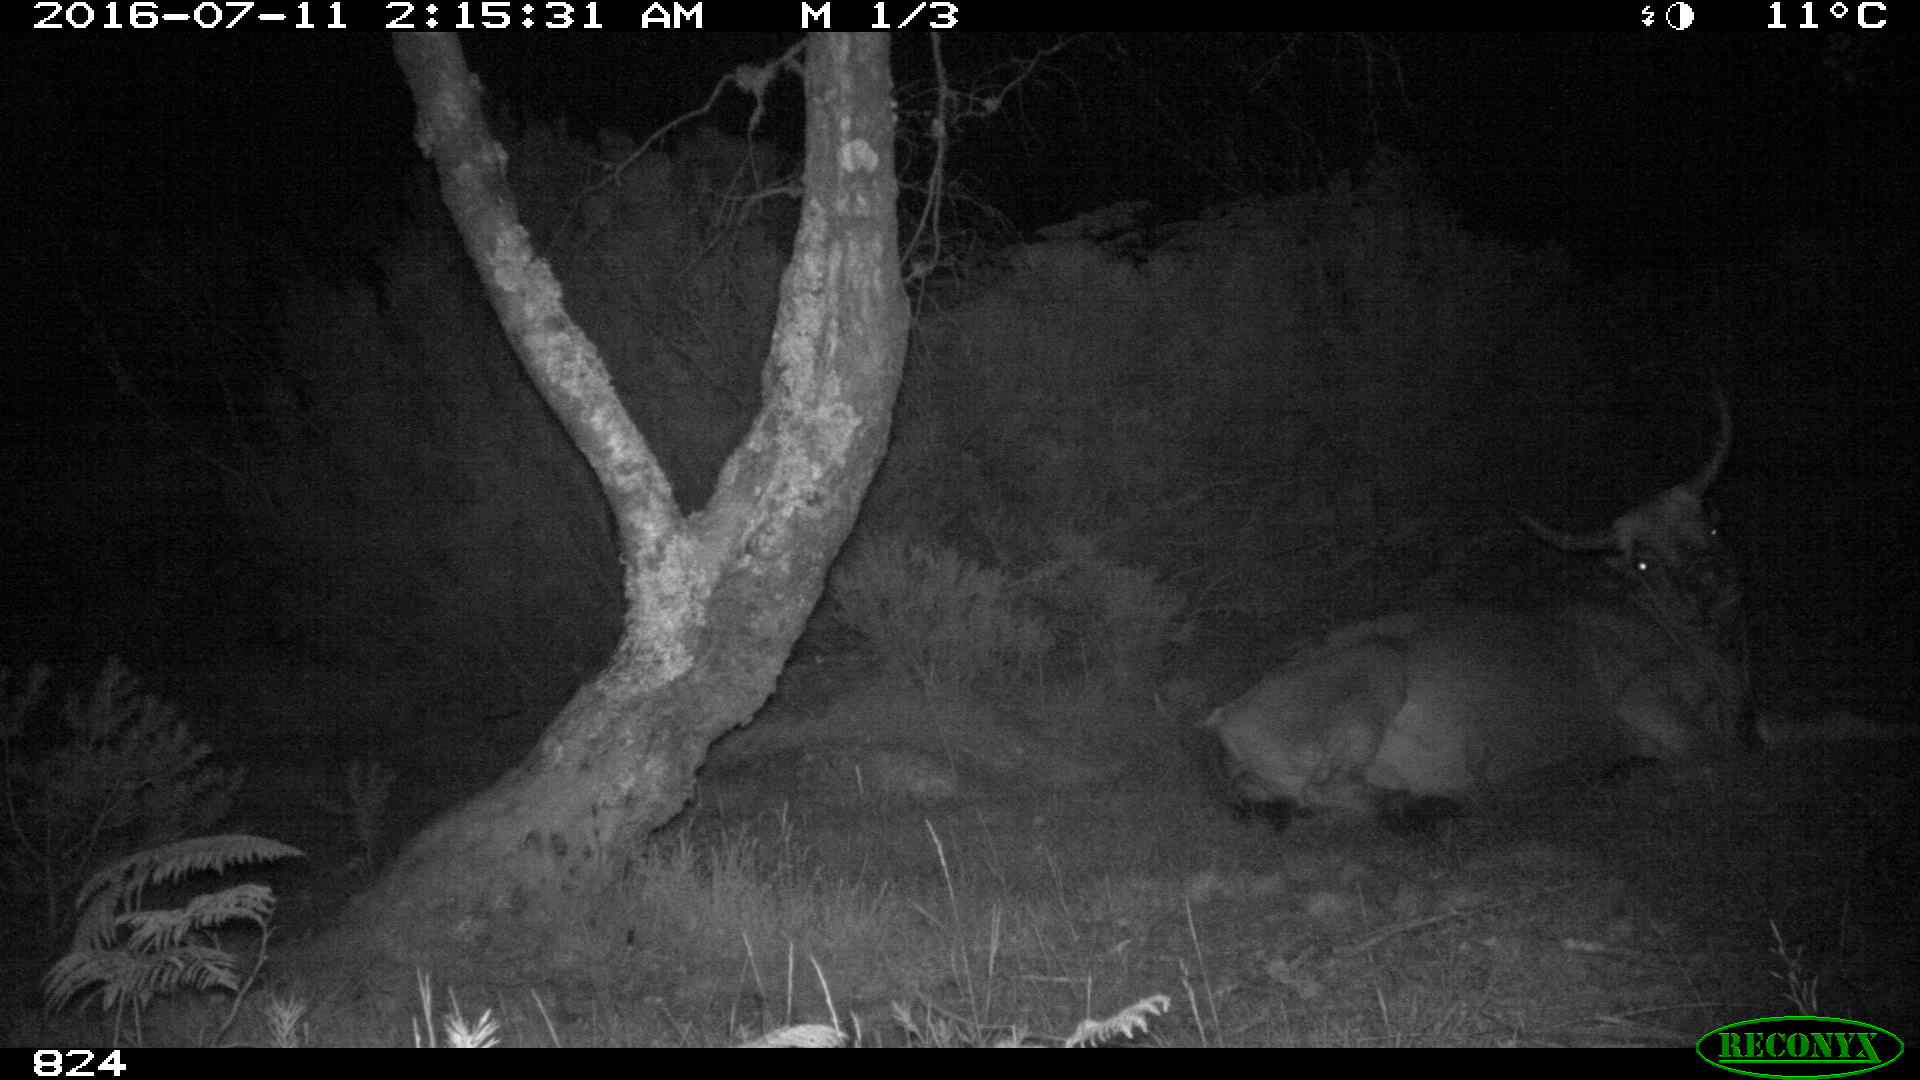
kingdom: Animalia
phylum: Chordata
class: Mammalia
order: Artiodactyla
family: Bovidae
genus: Bos
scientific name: Bos taurus
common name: Domesticated cattle
